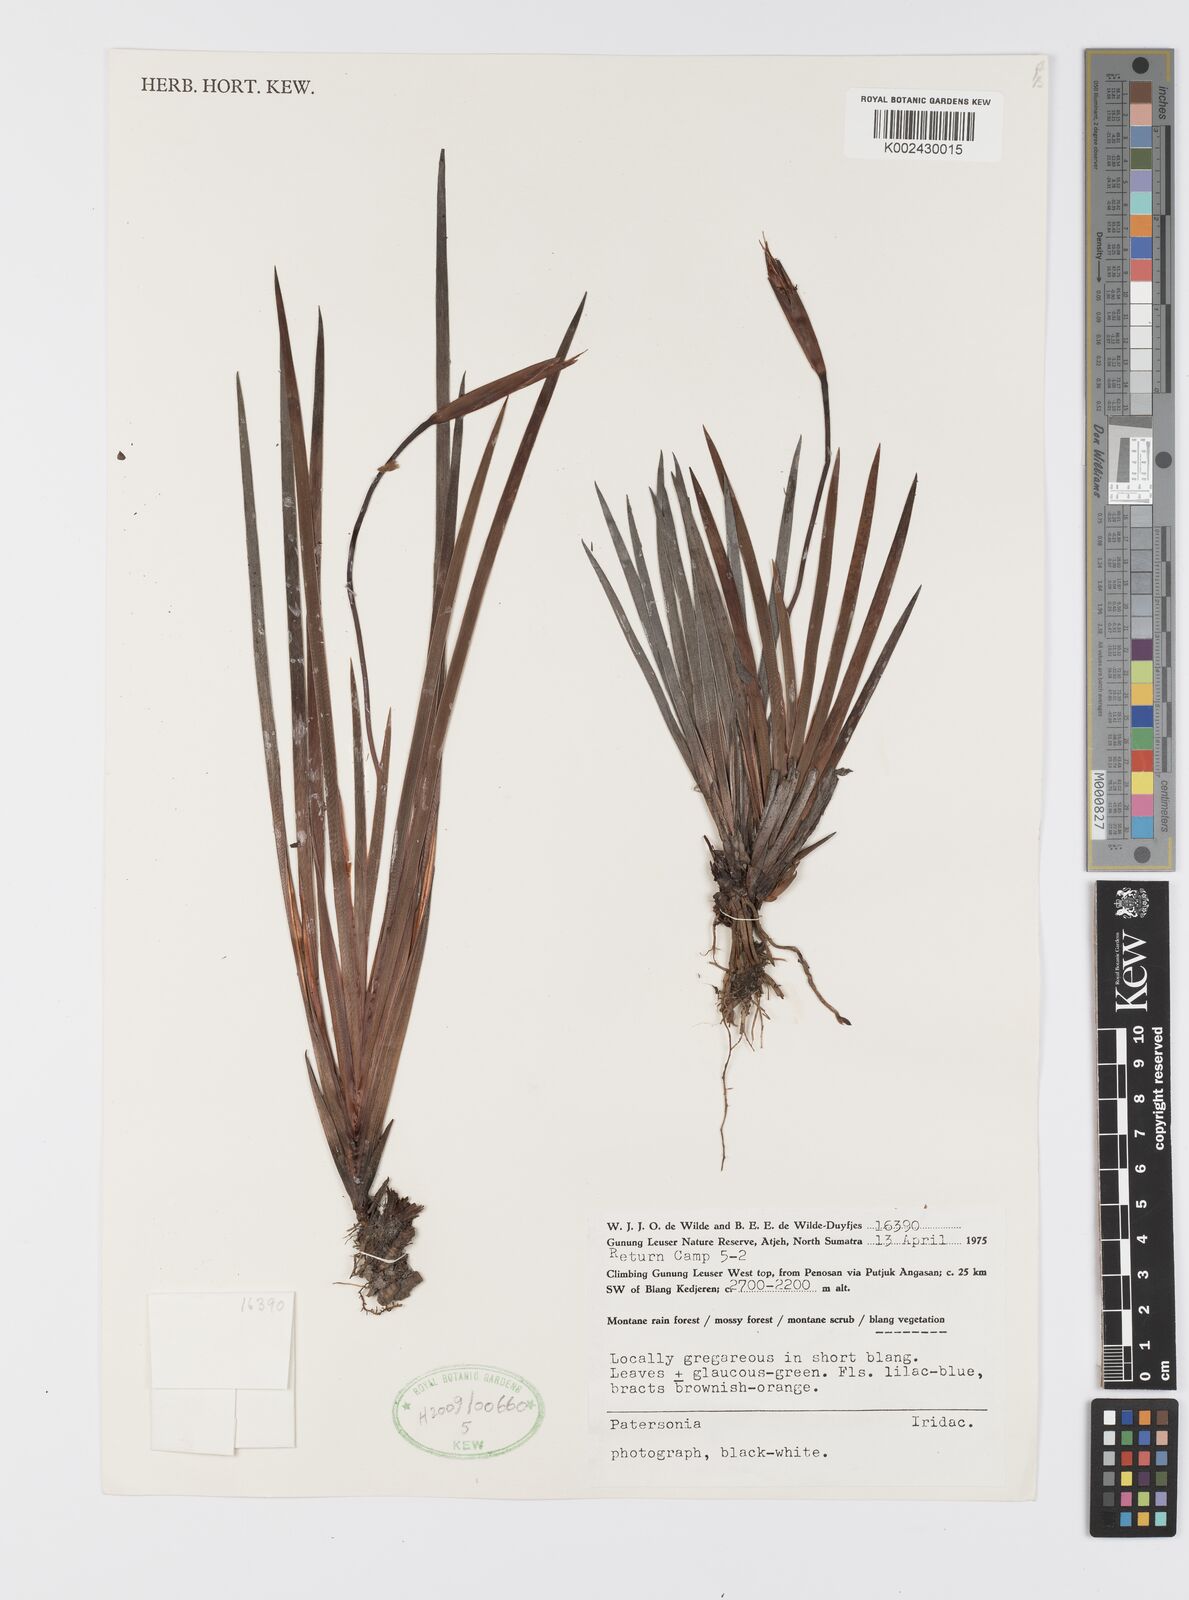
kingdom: Plantae
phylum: Tracheophyta
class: Liliopsida
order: Asparagales
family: Iridaceae
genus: Patersonia
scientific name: Patersonia
